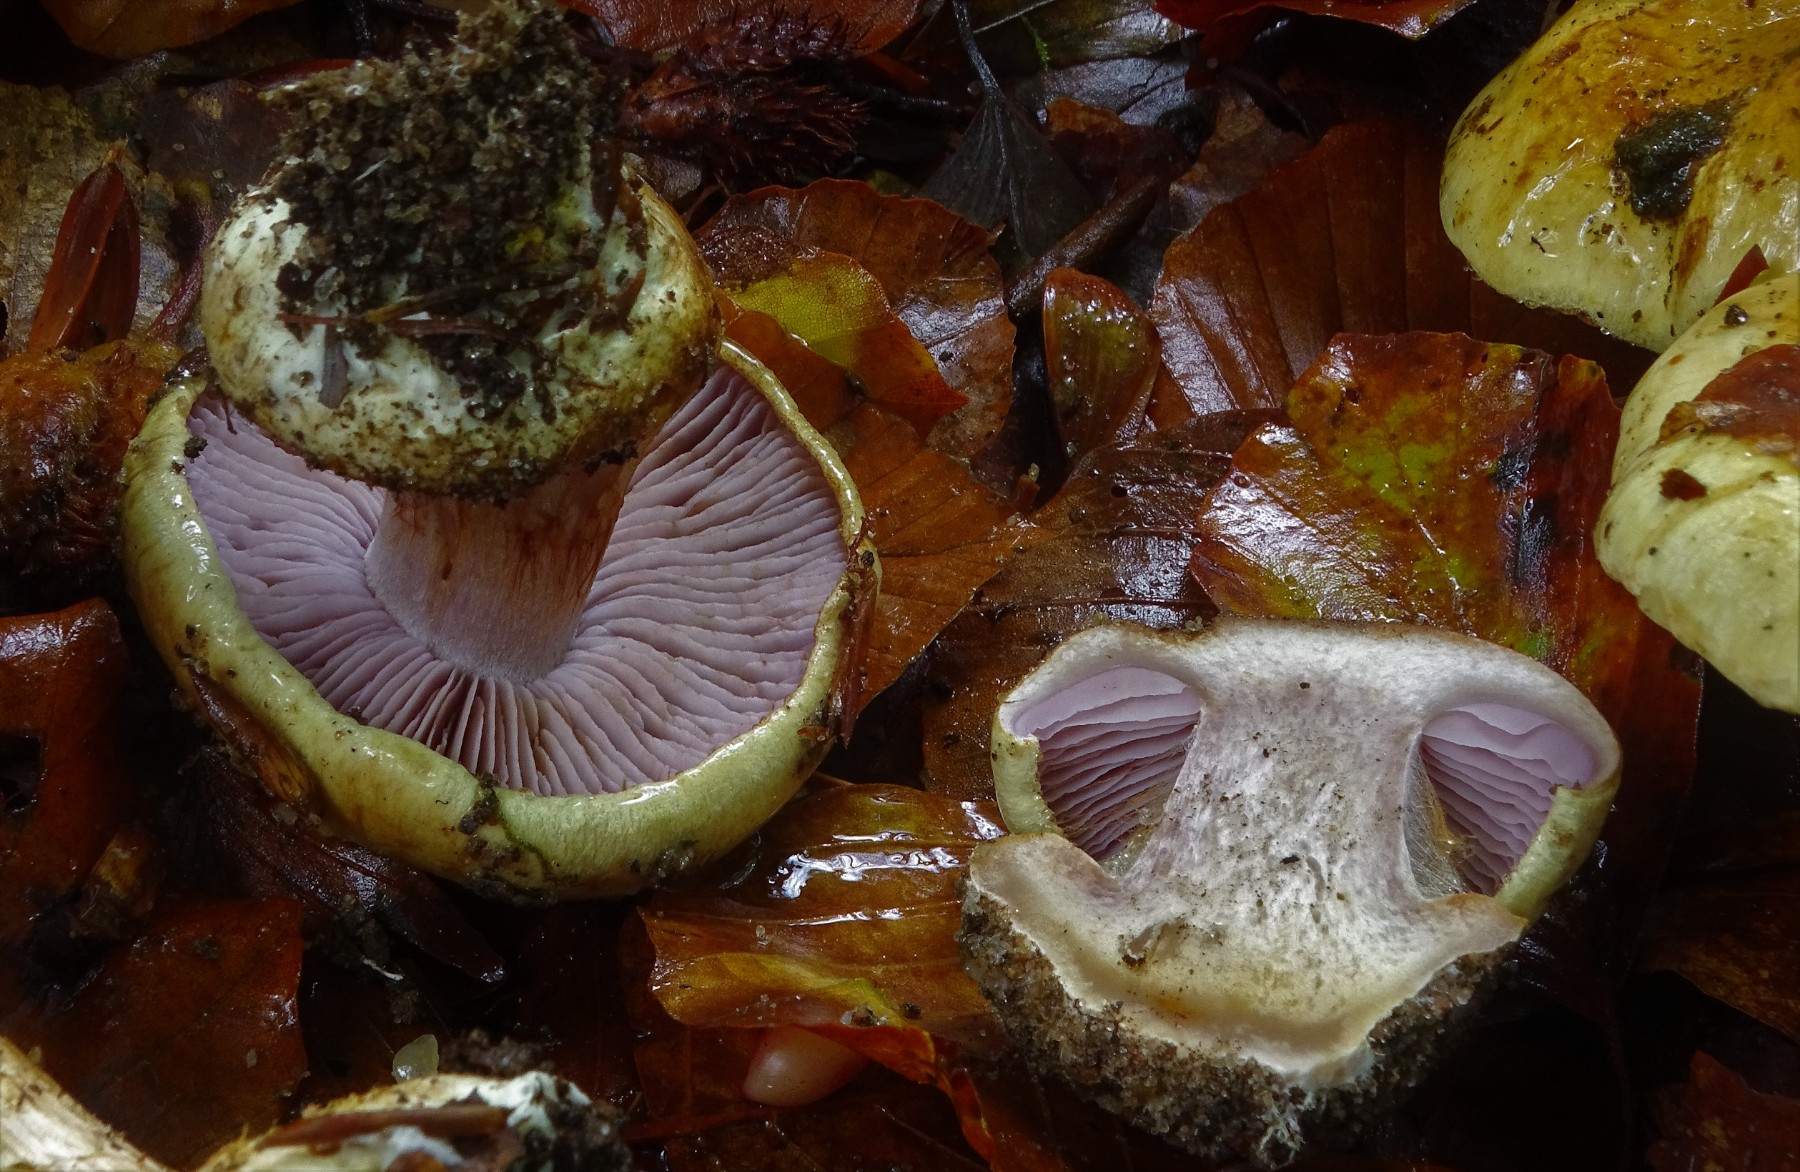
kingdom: Fungi
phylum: Basidiomycota
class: Agaricomycetes
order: Agaricales
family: Cortinariaceae
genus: Calonarius
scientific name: Calonarius callochrous
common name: lillabladet slørhat
